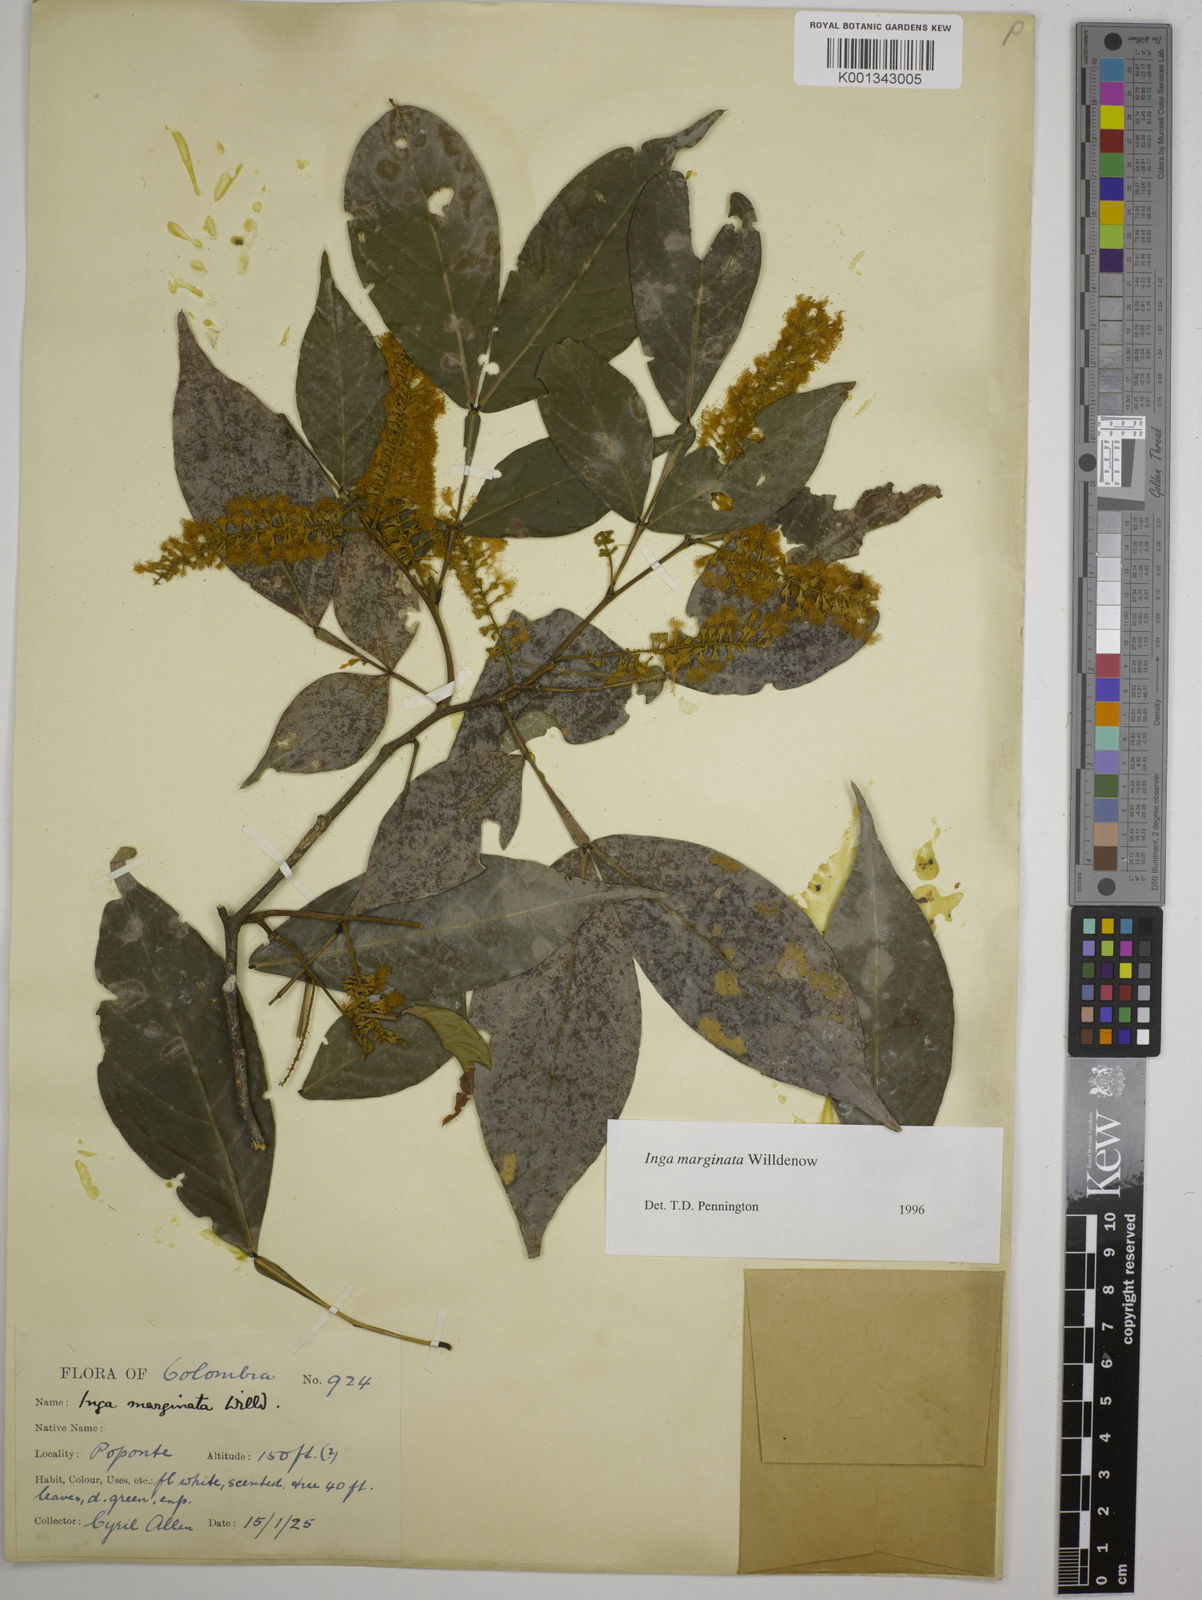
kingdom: Plantae
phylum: Tracheophyta
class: Magnoliopsida
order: Fabales
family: Fabaceae
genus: Inga
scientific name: Inga marginata
